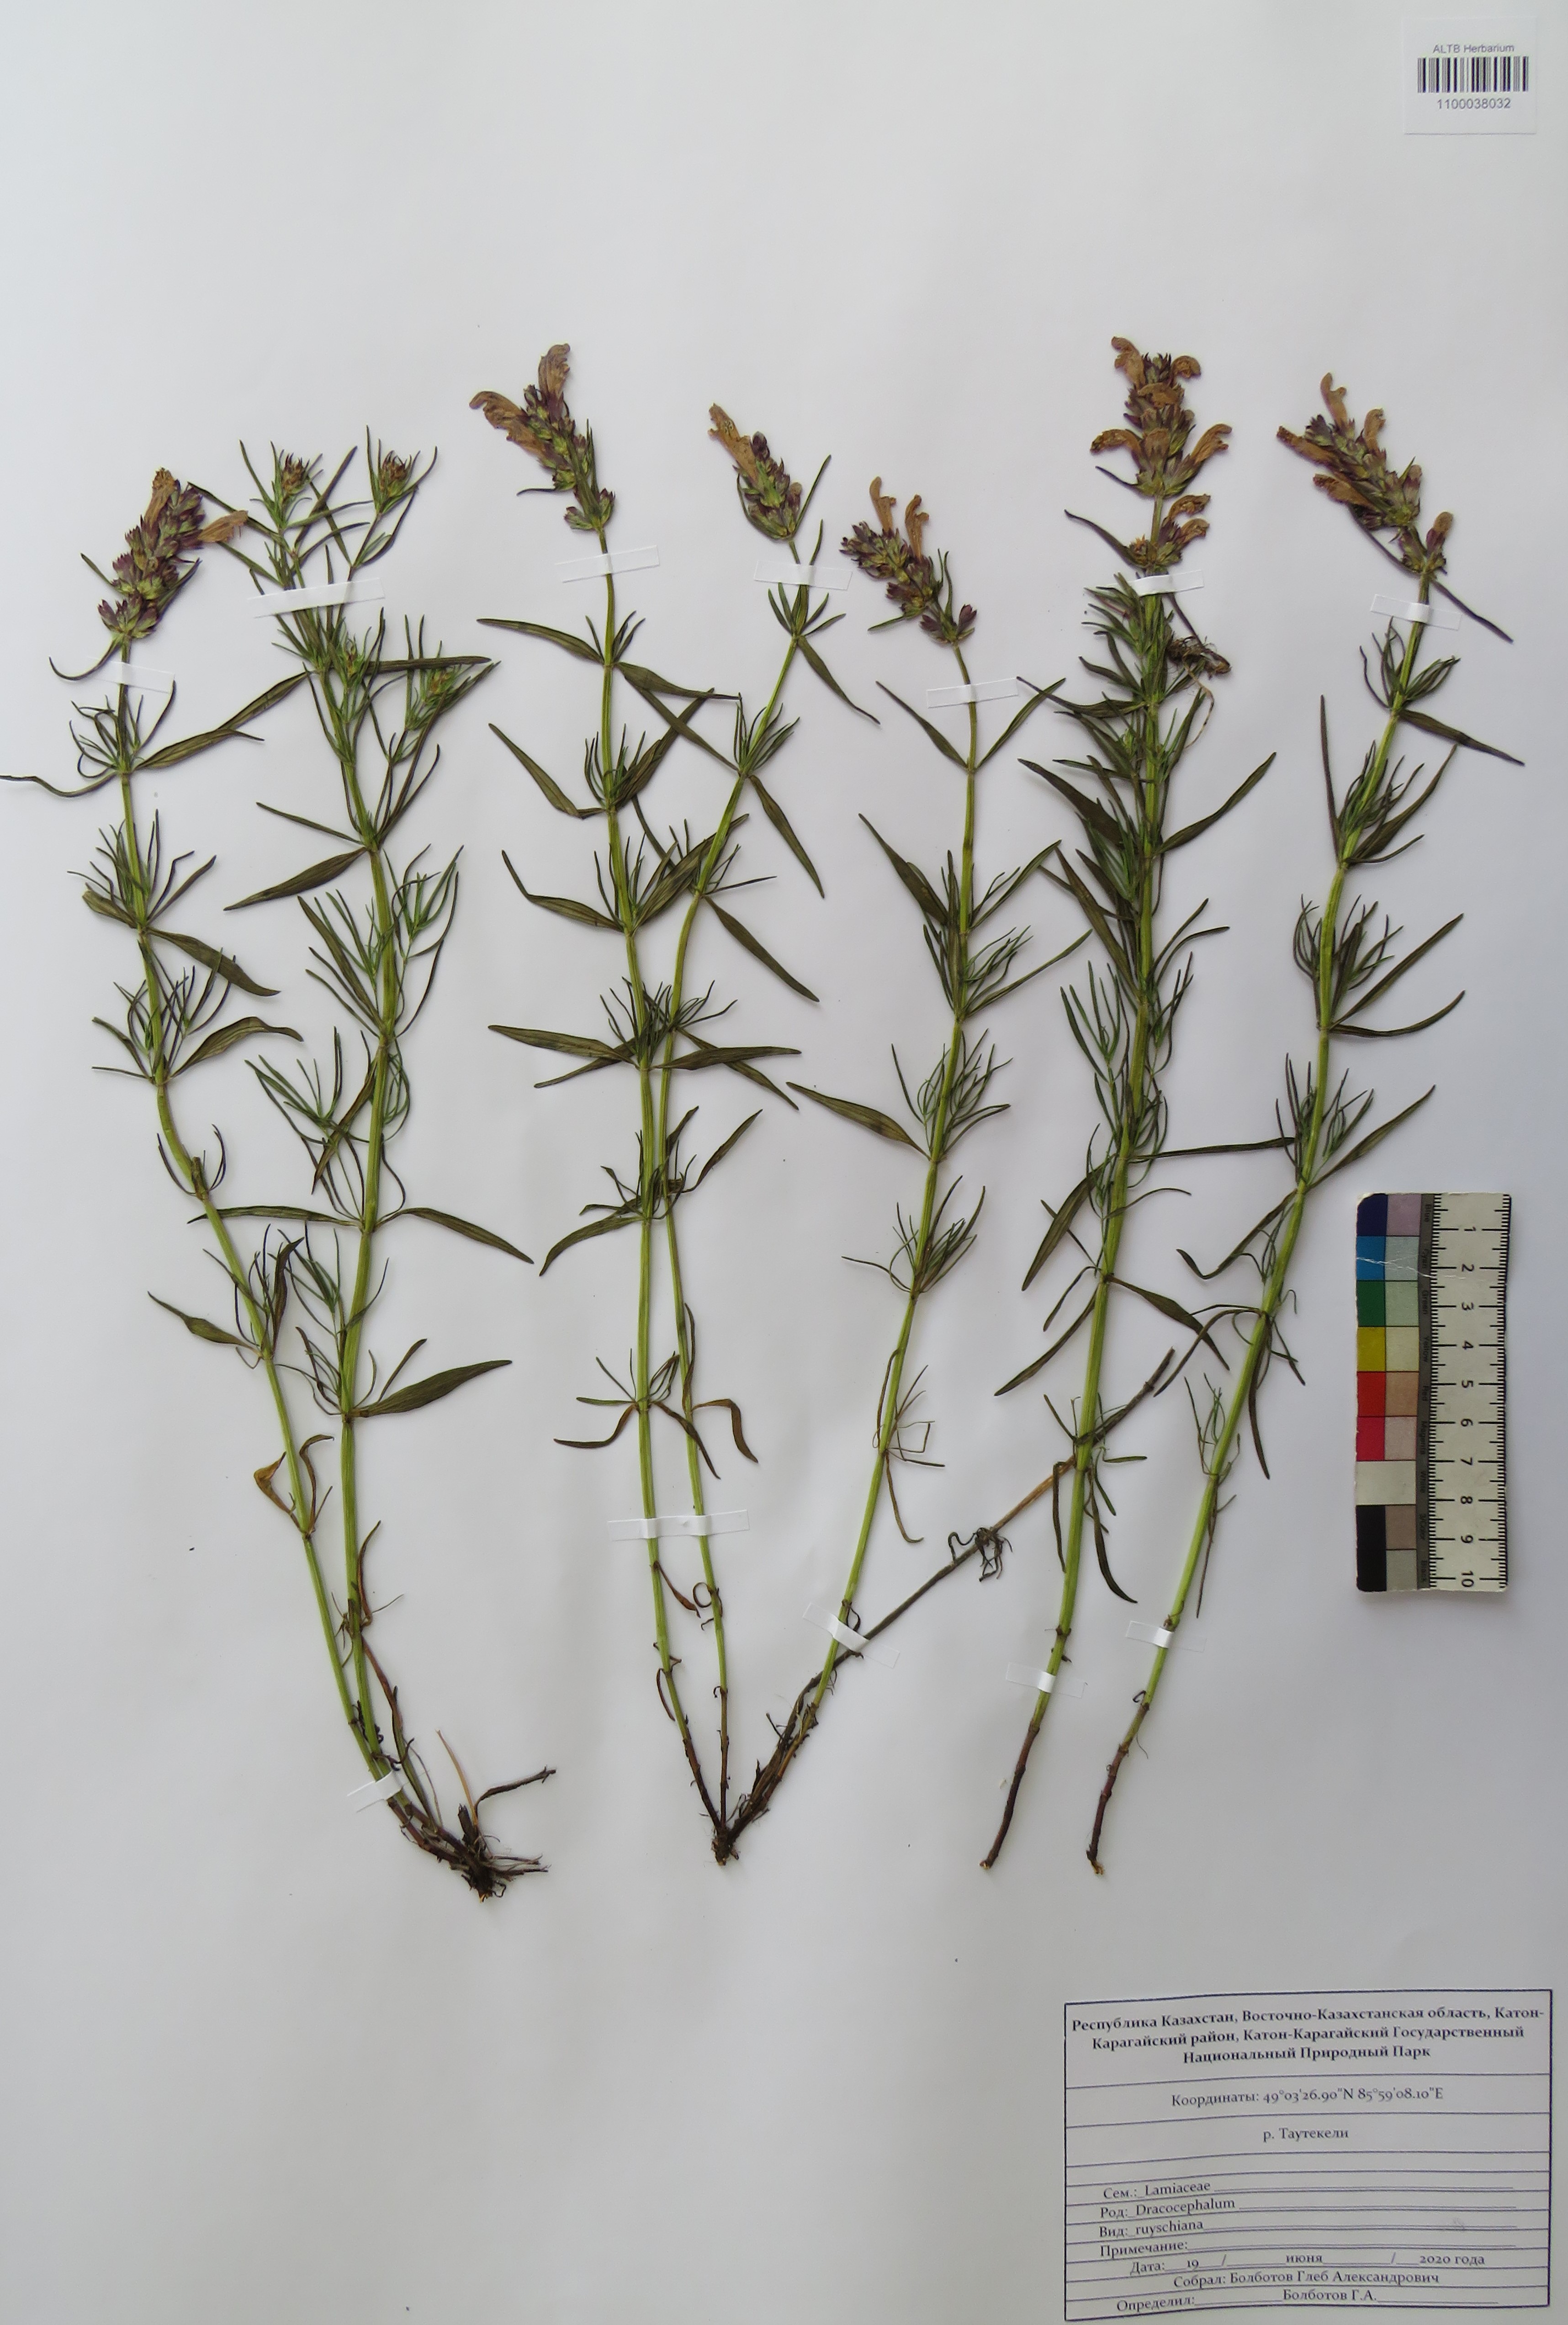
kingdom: Plantae
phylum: Tracheophyta
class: Magnoliopsida
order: Lamiales
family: Lamiaceae
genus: Dracocephalum
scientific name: Dracocephalum ruyschiana
